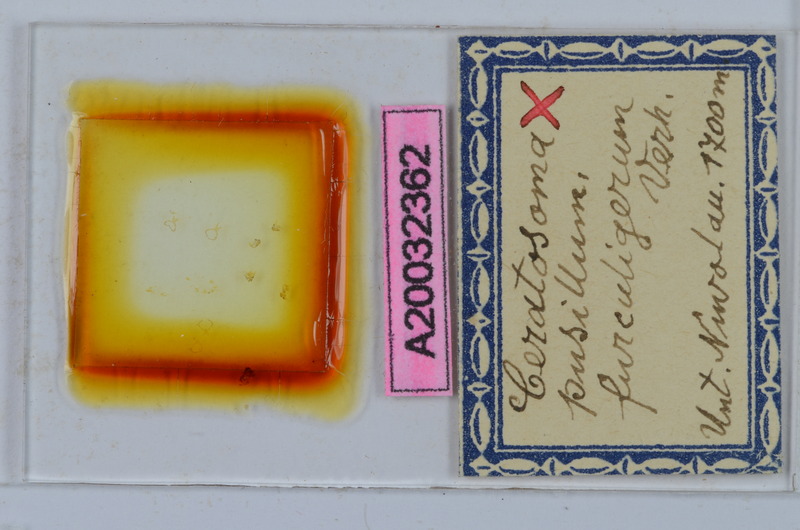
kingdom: Animalia
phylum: Arthropoda
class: Diplopoda
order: Chordeumatida
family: Craspedosomatidae
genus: Ochogona
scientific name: Ochogona pusilla
